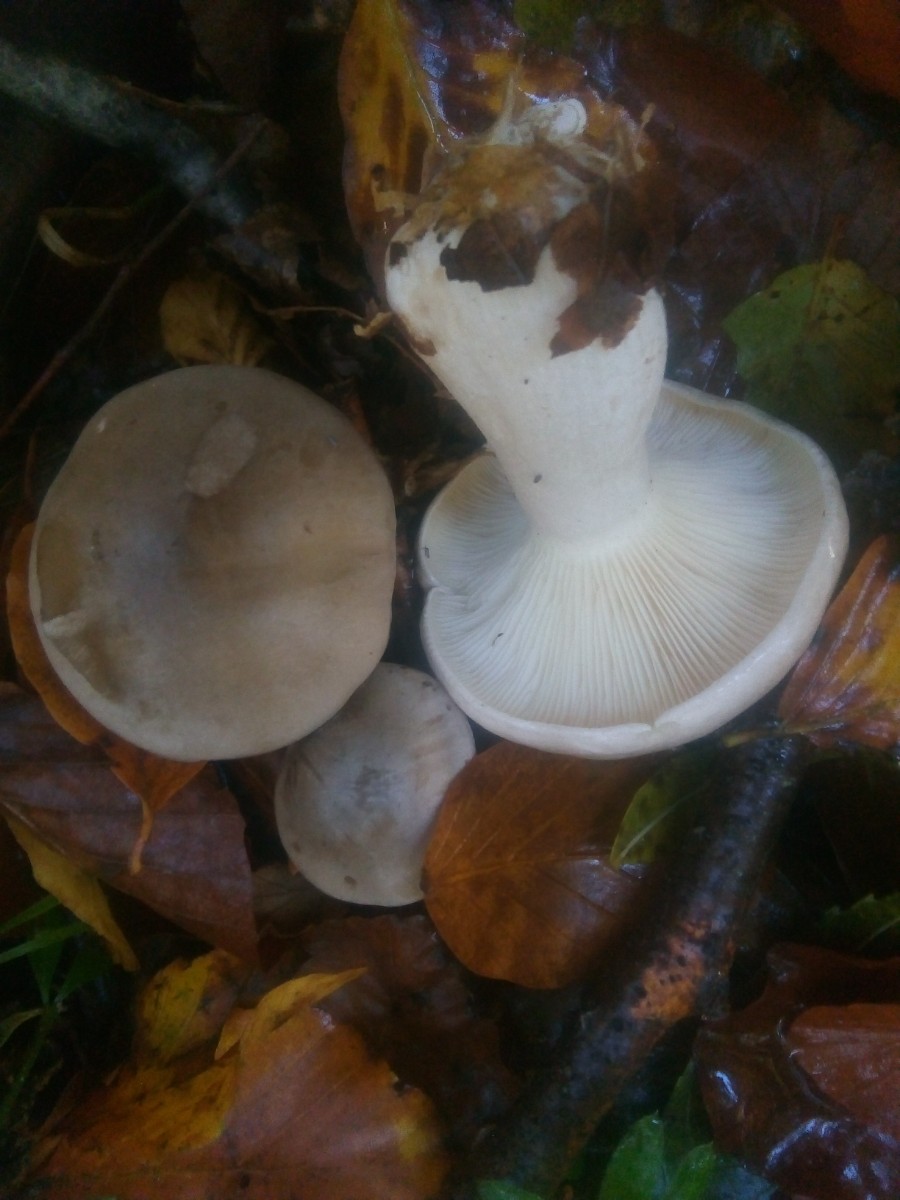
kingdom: Fungi
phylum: Basidiomycota
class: Agaricomycetes
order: Agaricales
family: Tricholomataceae
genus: Clitocybe
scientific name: Clitocybe nebularis
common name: tåge-tragthat
